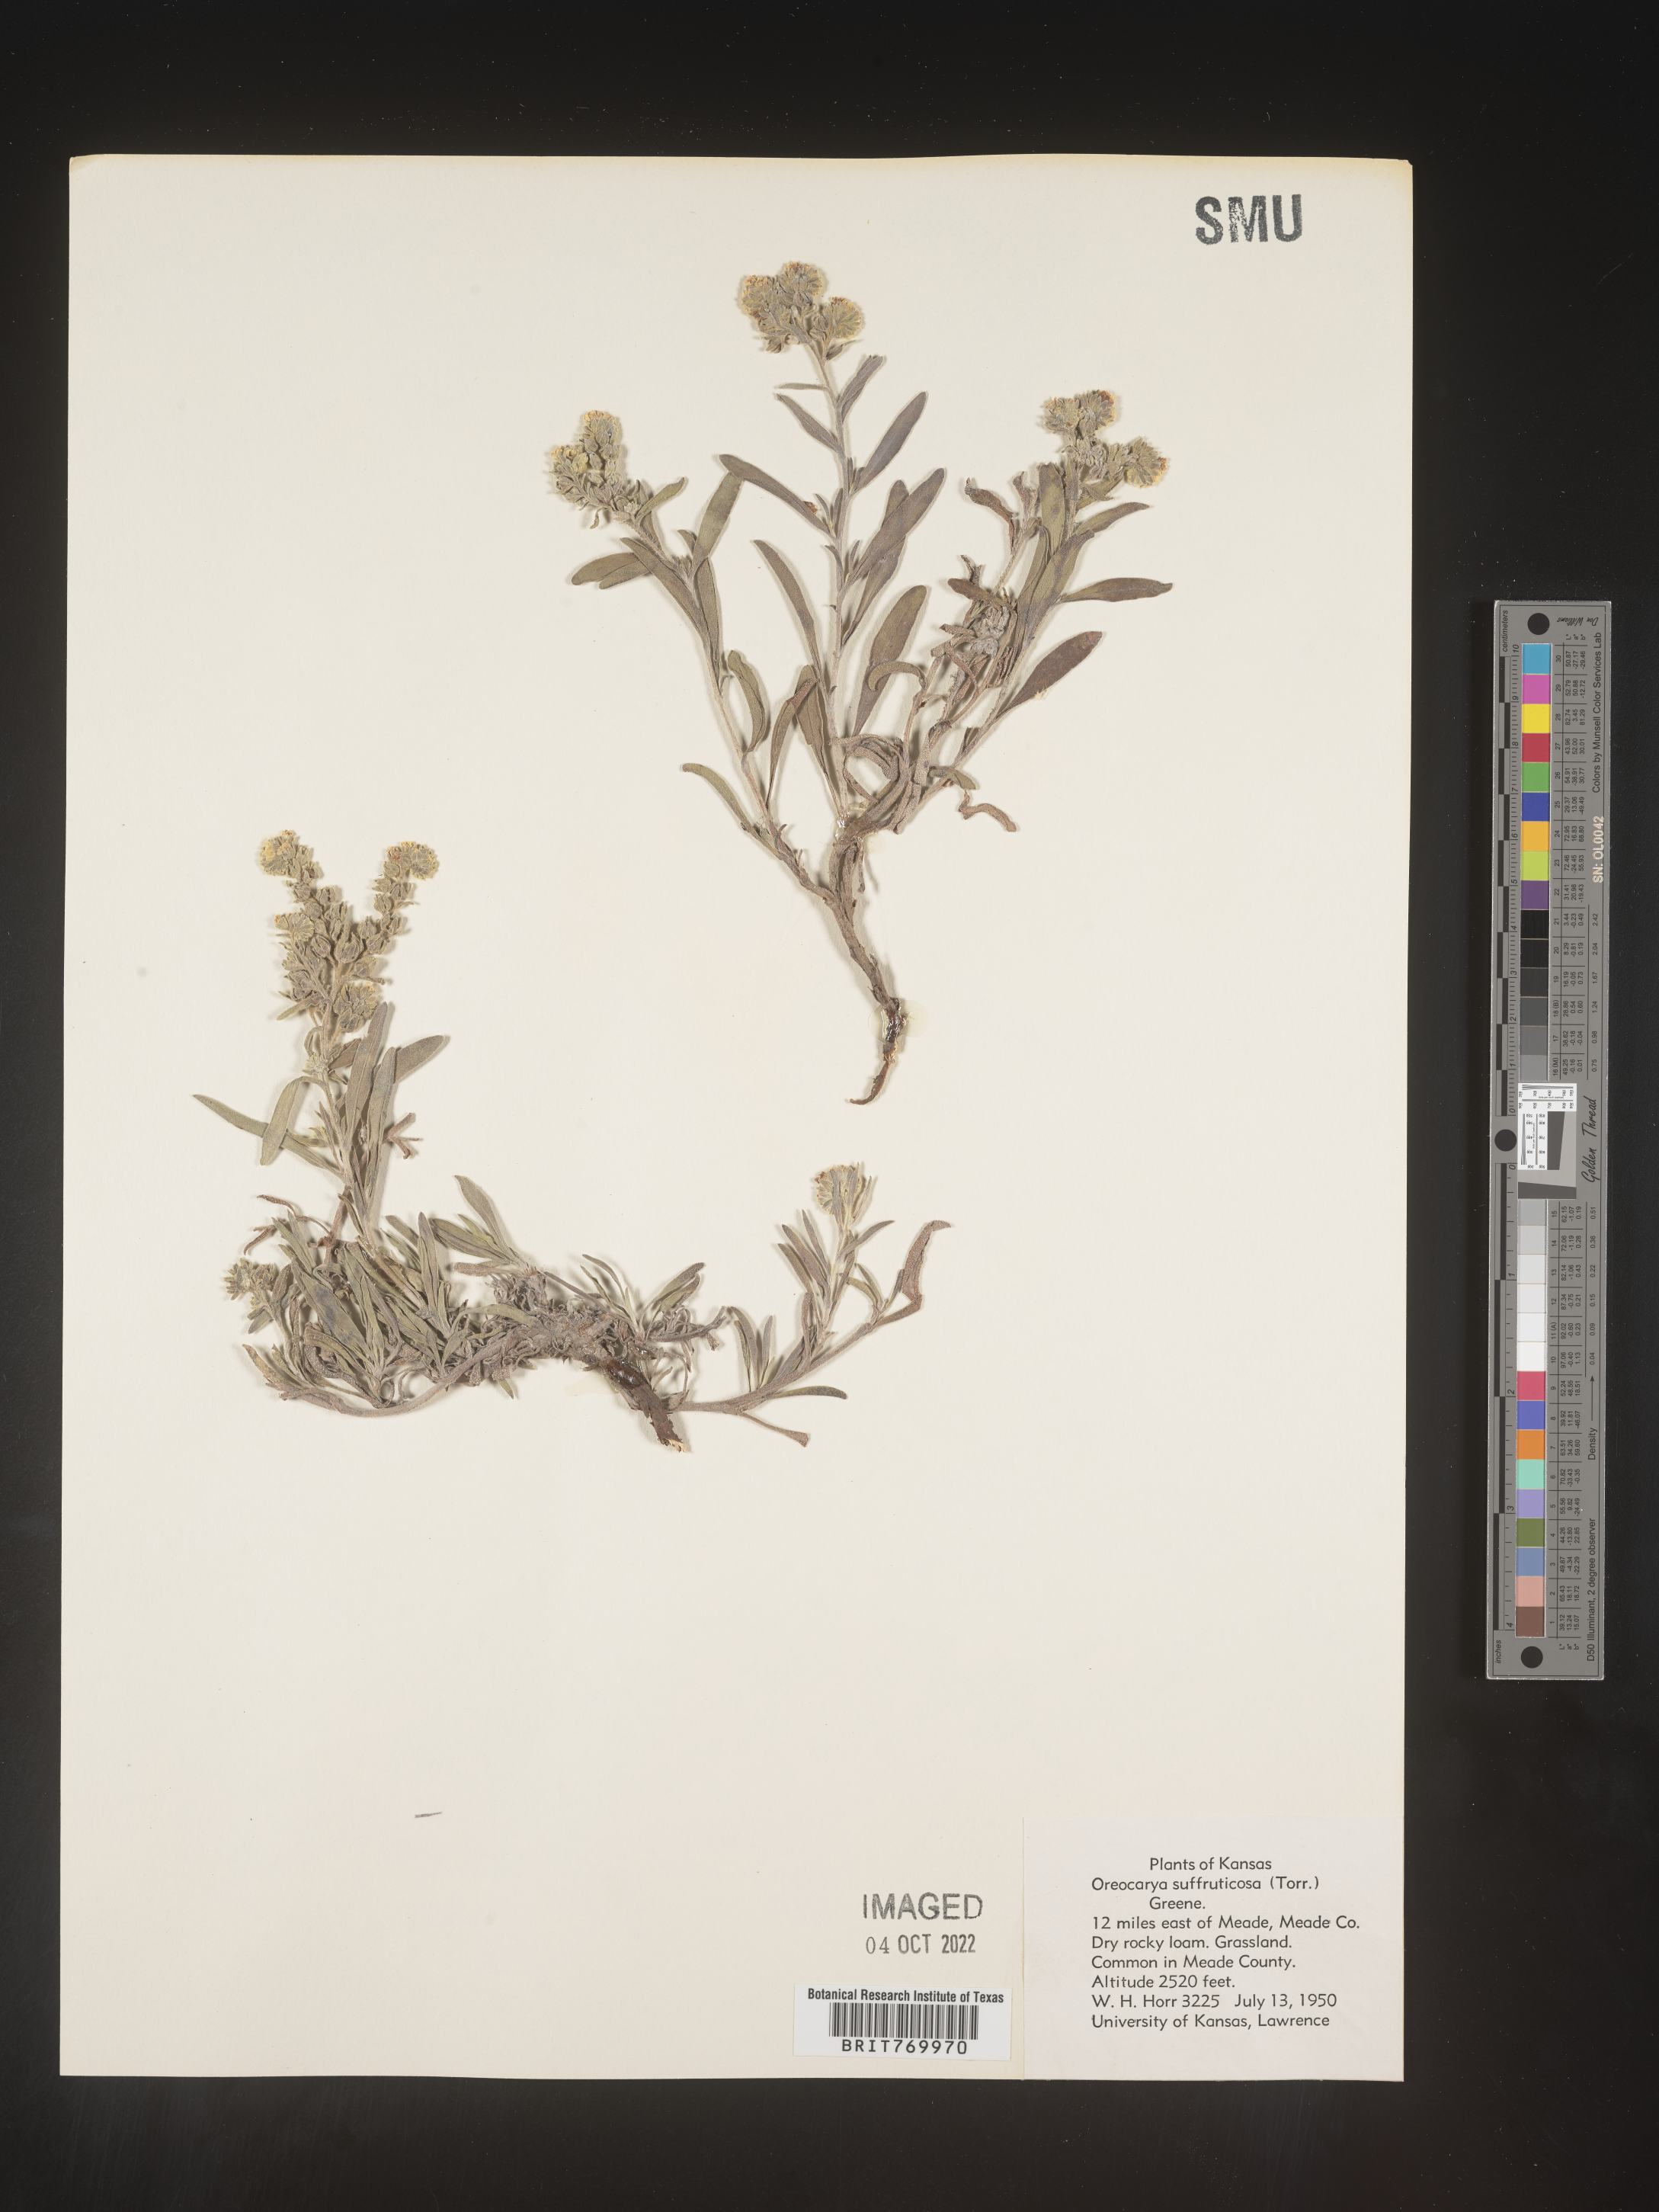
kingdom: Plantae
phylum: Tracheophyta
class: Magnoliopsida
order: Boraginales
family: Boraginaceae
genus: Oreocarya
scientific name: Oreocarya
